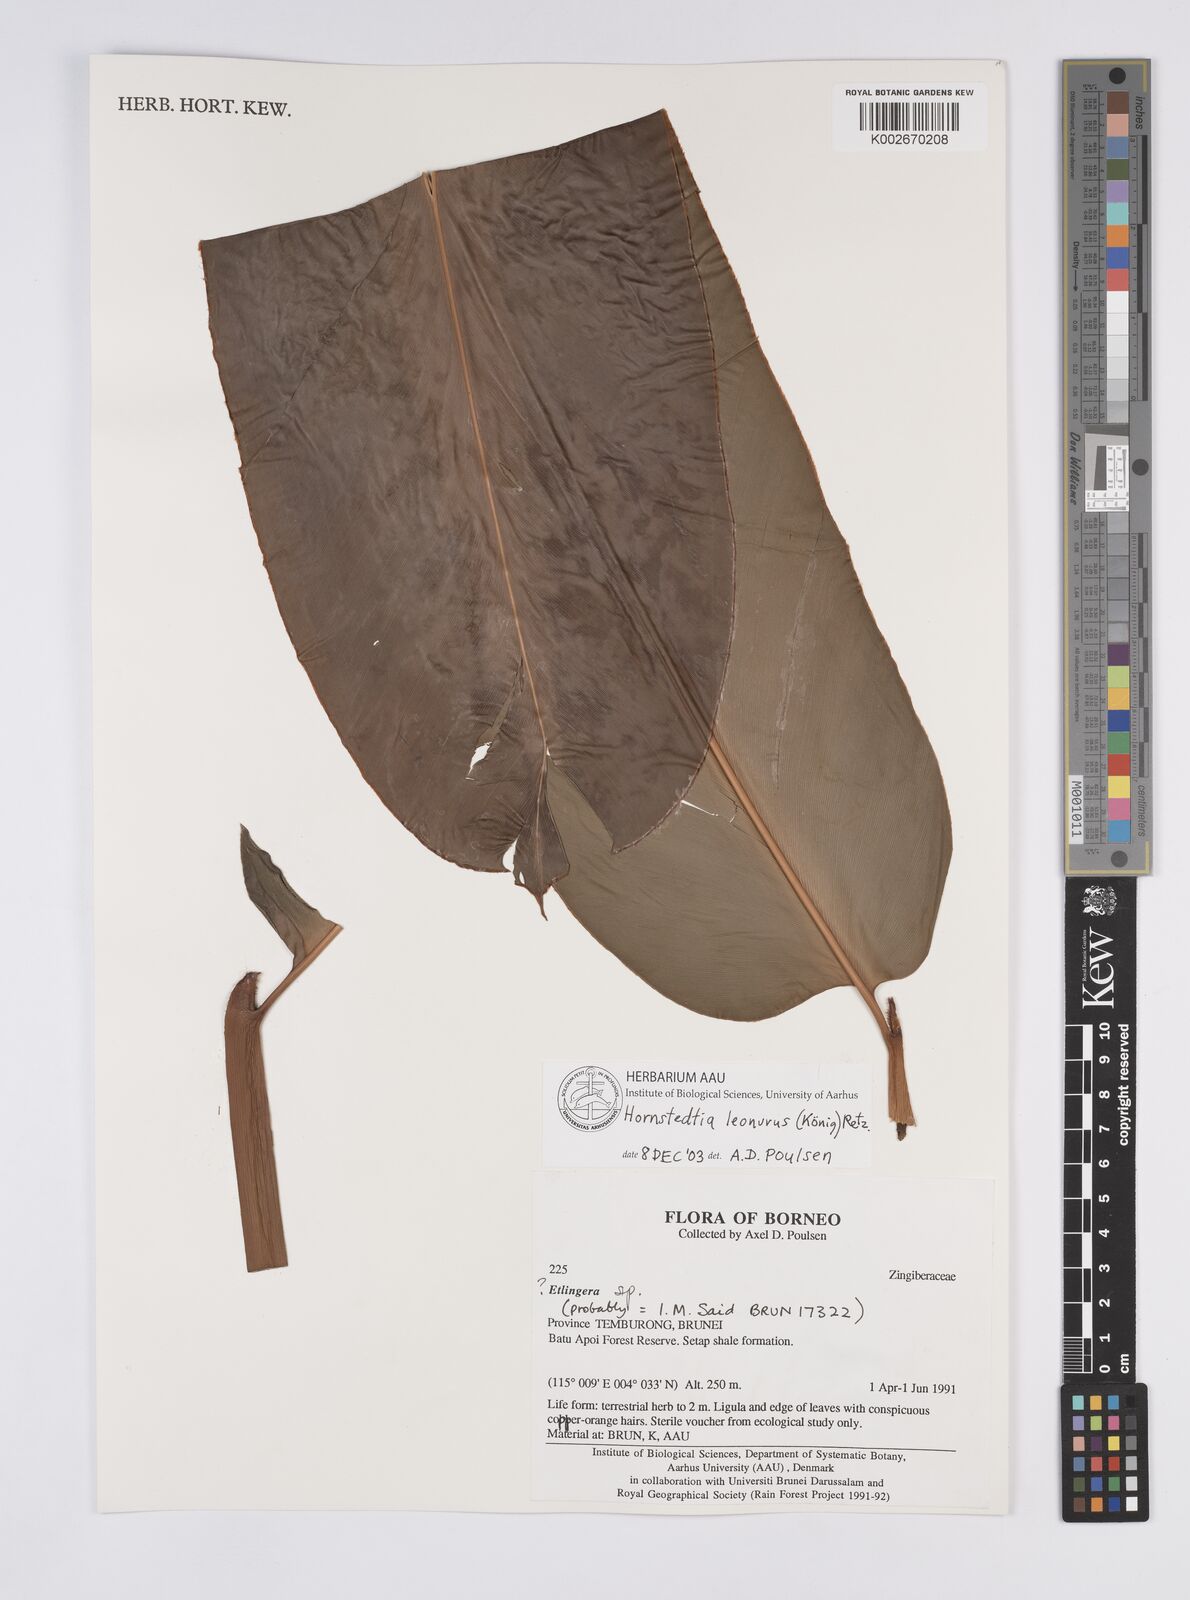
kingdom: Plantae
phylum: Tracheophyta
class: Liliopsida
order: Zingiberales
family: Zingiberaceae
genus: Hornstedtia
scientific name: Hornstedtia leonurus
